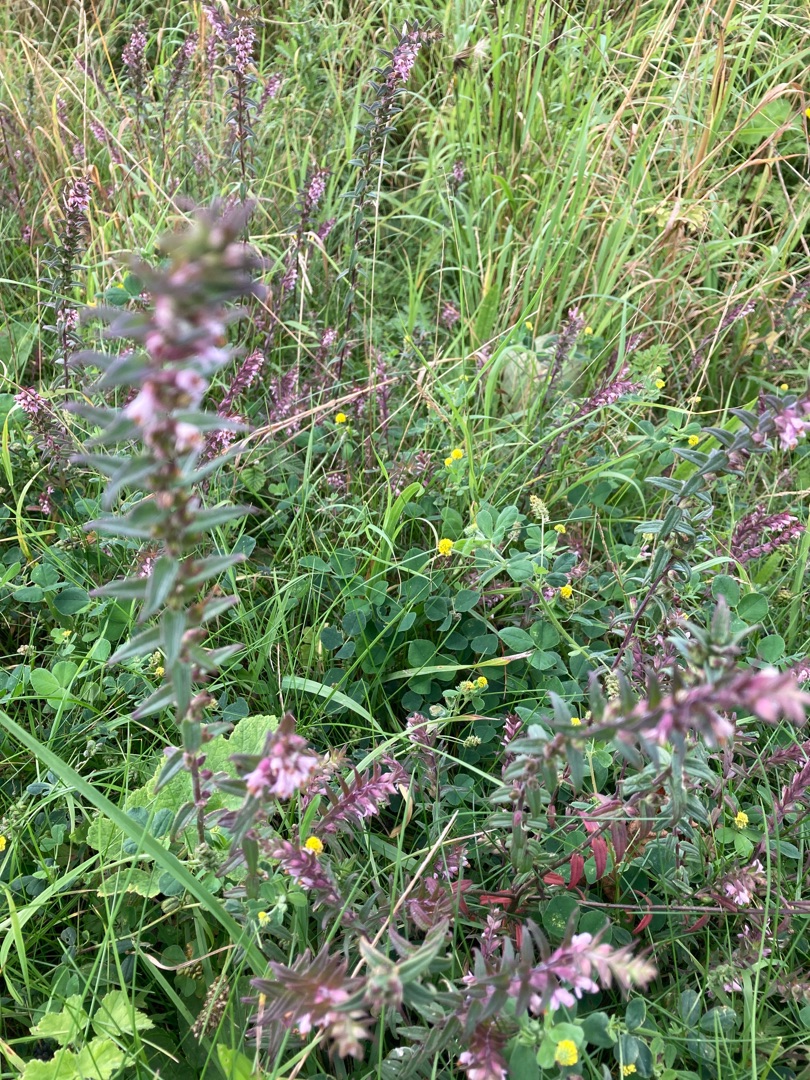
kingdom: Plantae
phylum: Tracheophyta
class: Magnoliopsida
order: Lamiales
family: Orobanchaceae
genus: Odontites
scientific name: Odontites vulgaris
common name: Høst-rødtop
